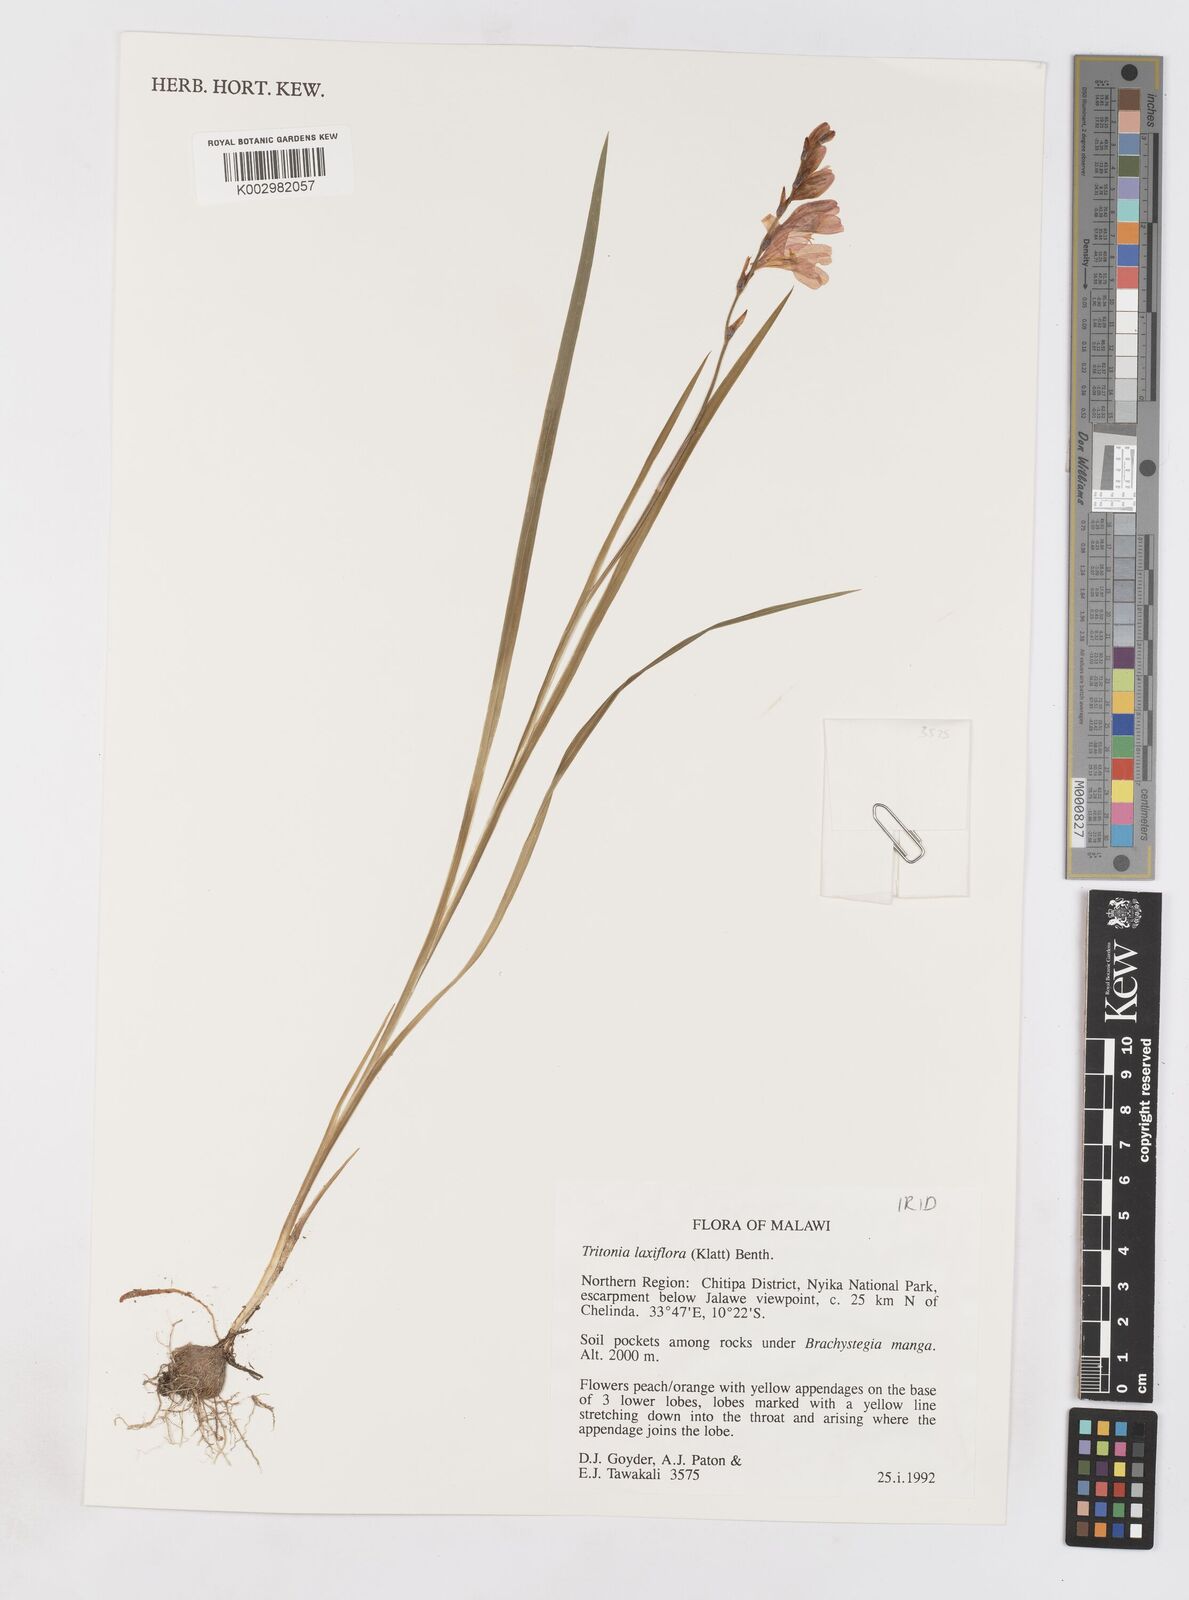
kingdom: Plantae
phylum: Tracheophyta
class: Liliopsida
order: Asparagales
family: Iridaceae
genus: Tritonia
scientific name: Tritonia laxifolia
